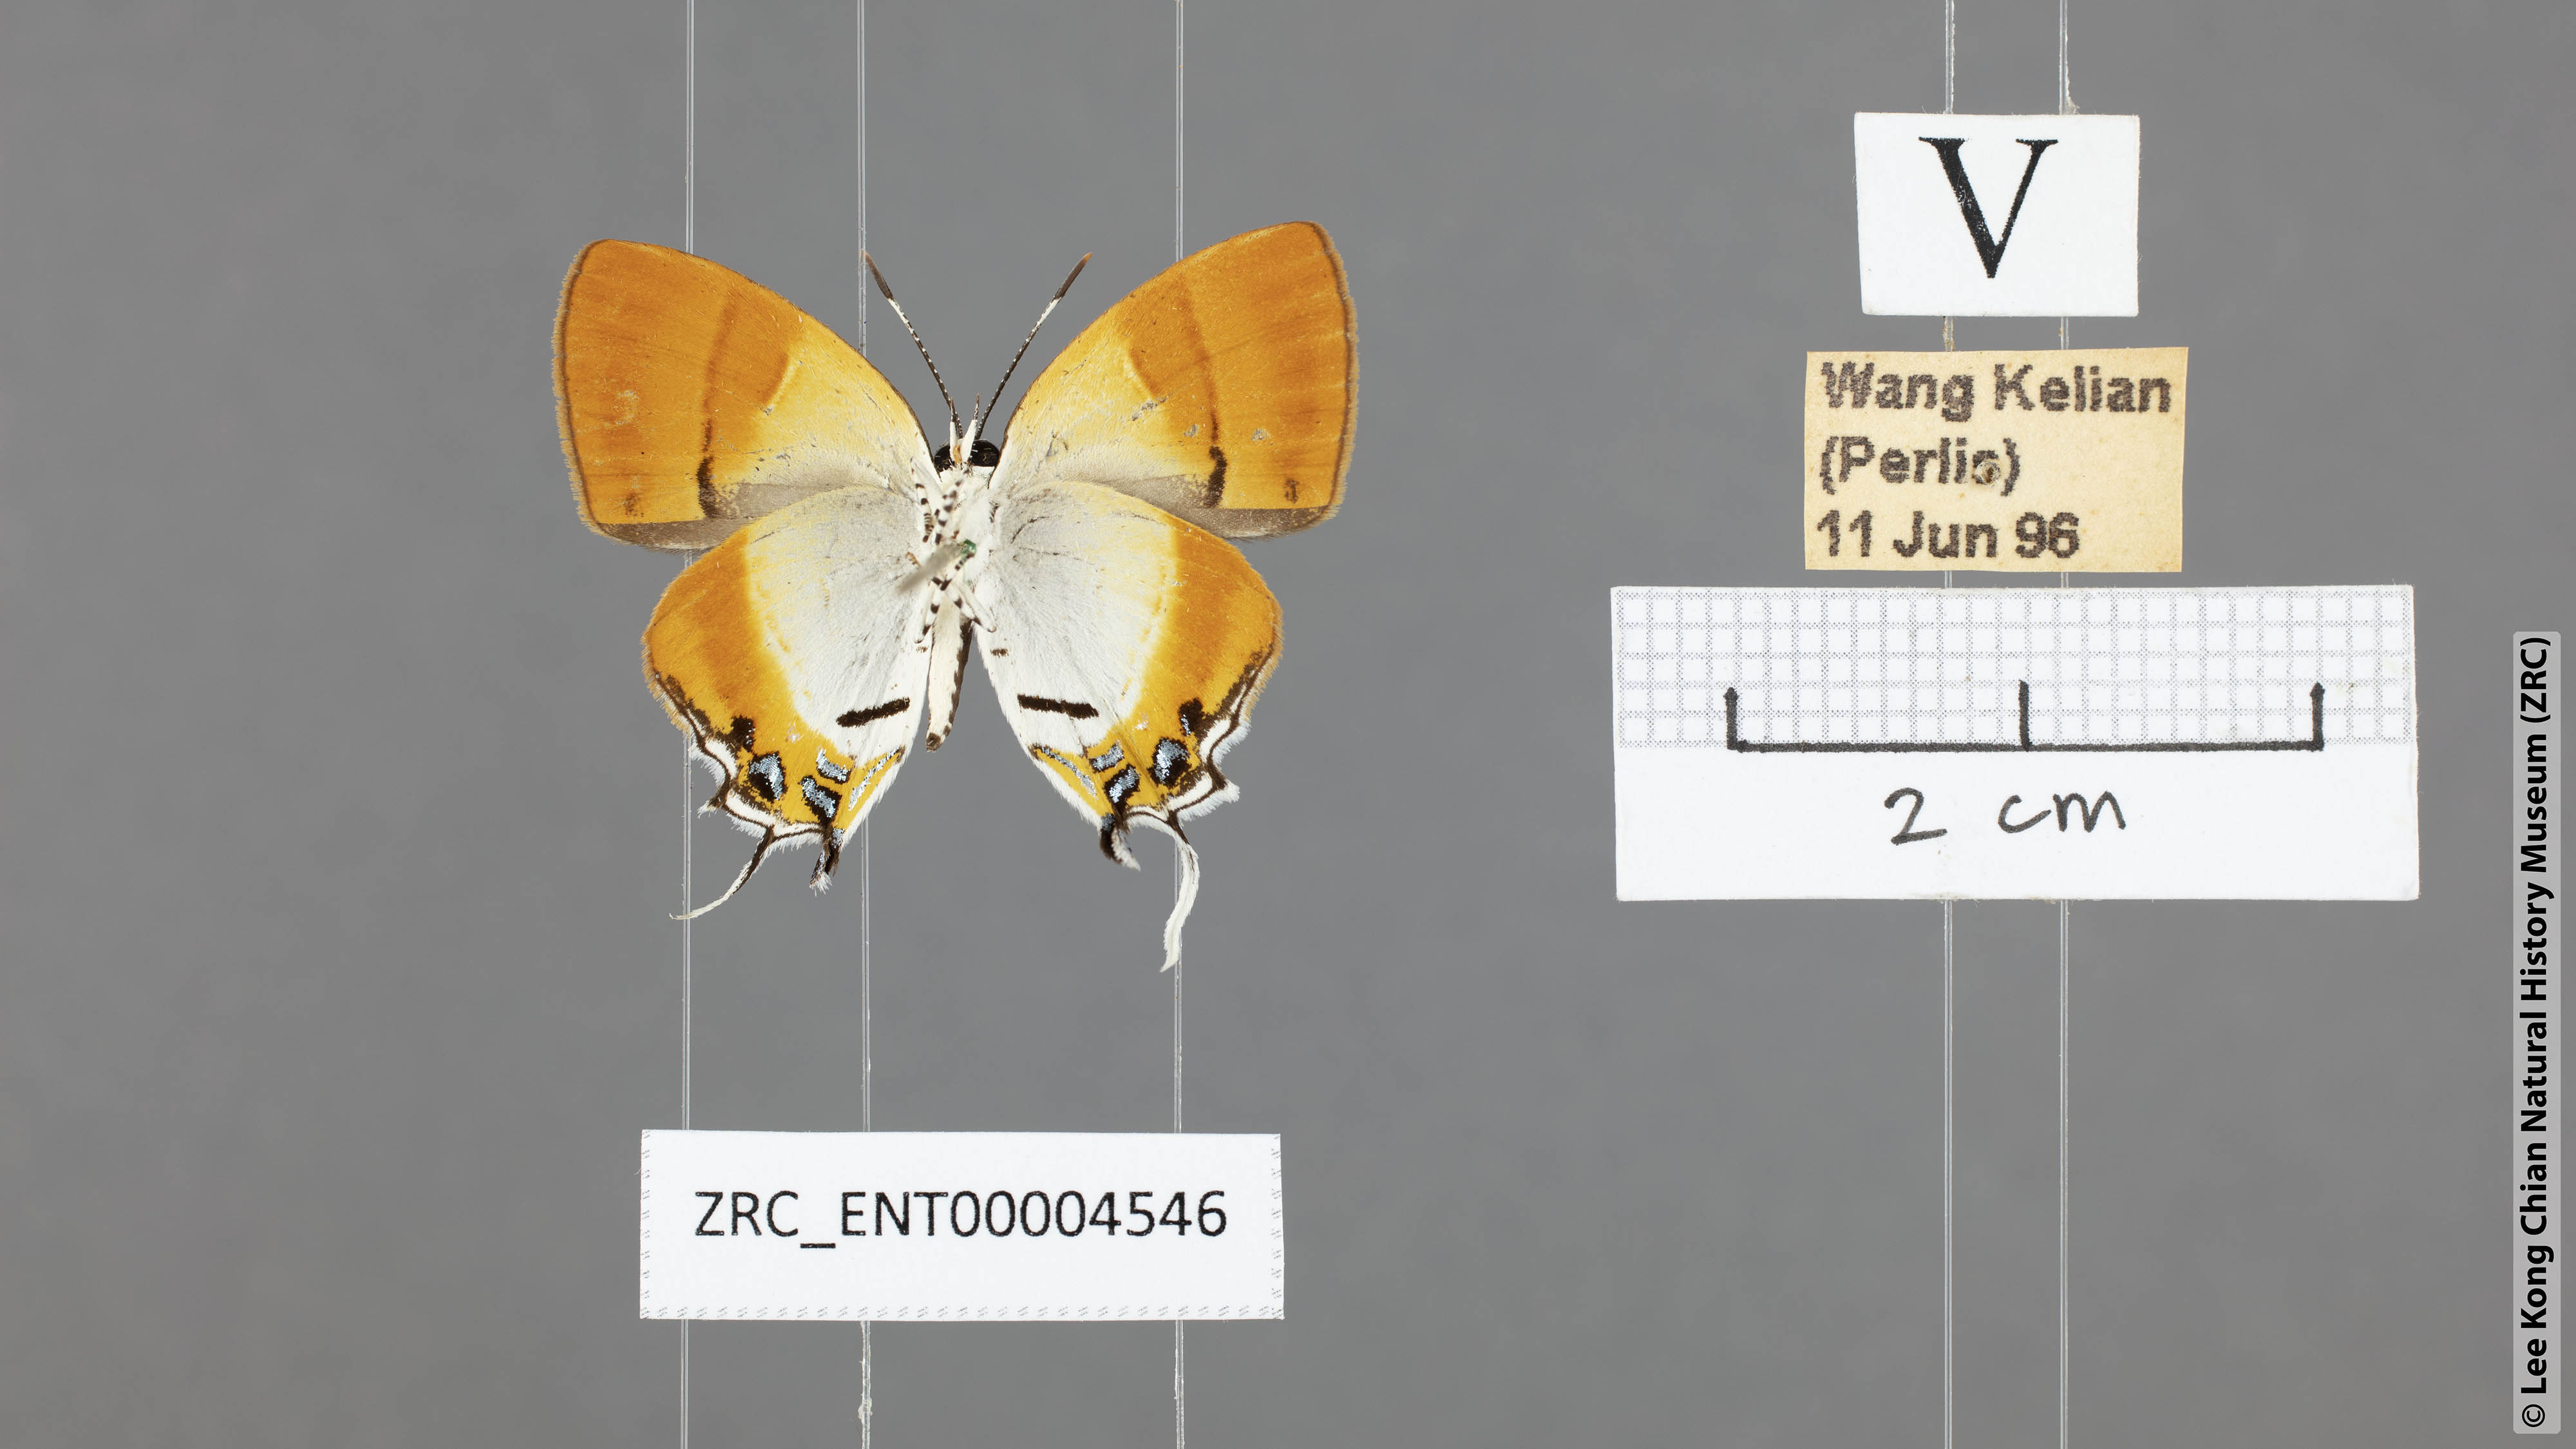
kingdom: Animalia
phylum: Arthropoda
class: Insecta
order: Lepidoptera
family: Lycaenidae
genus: Sithon
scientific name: Sithon nedymond
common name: Plush
